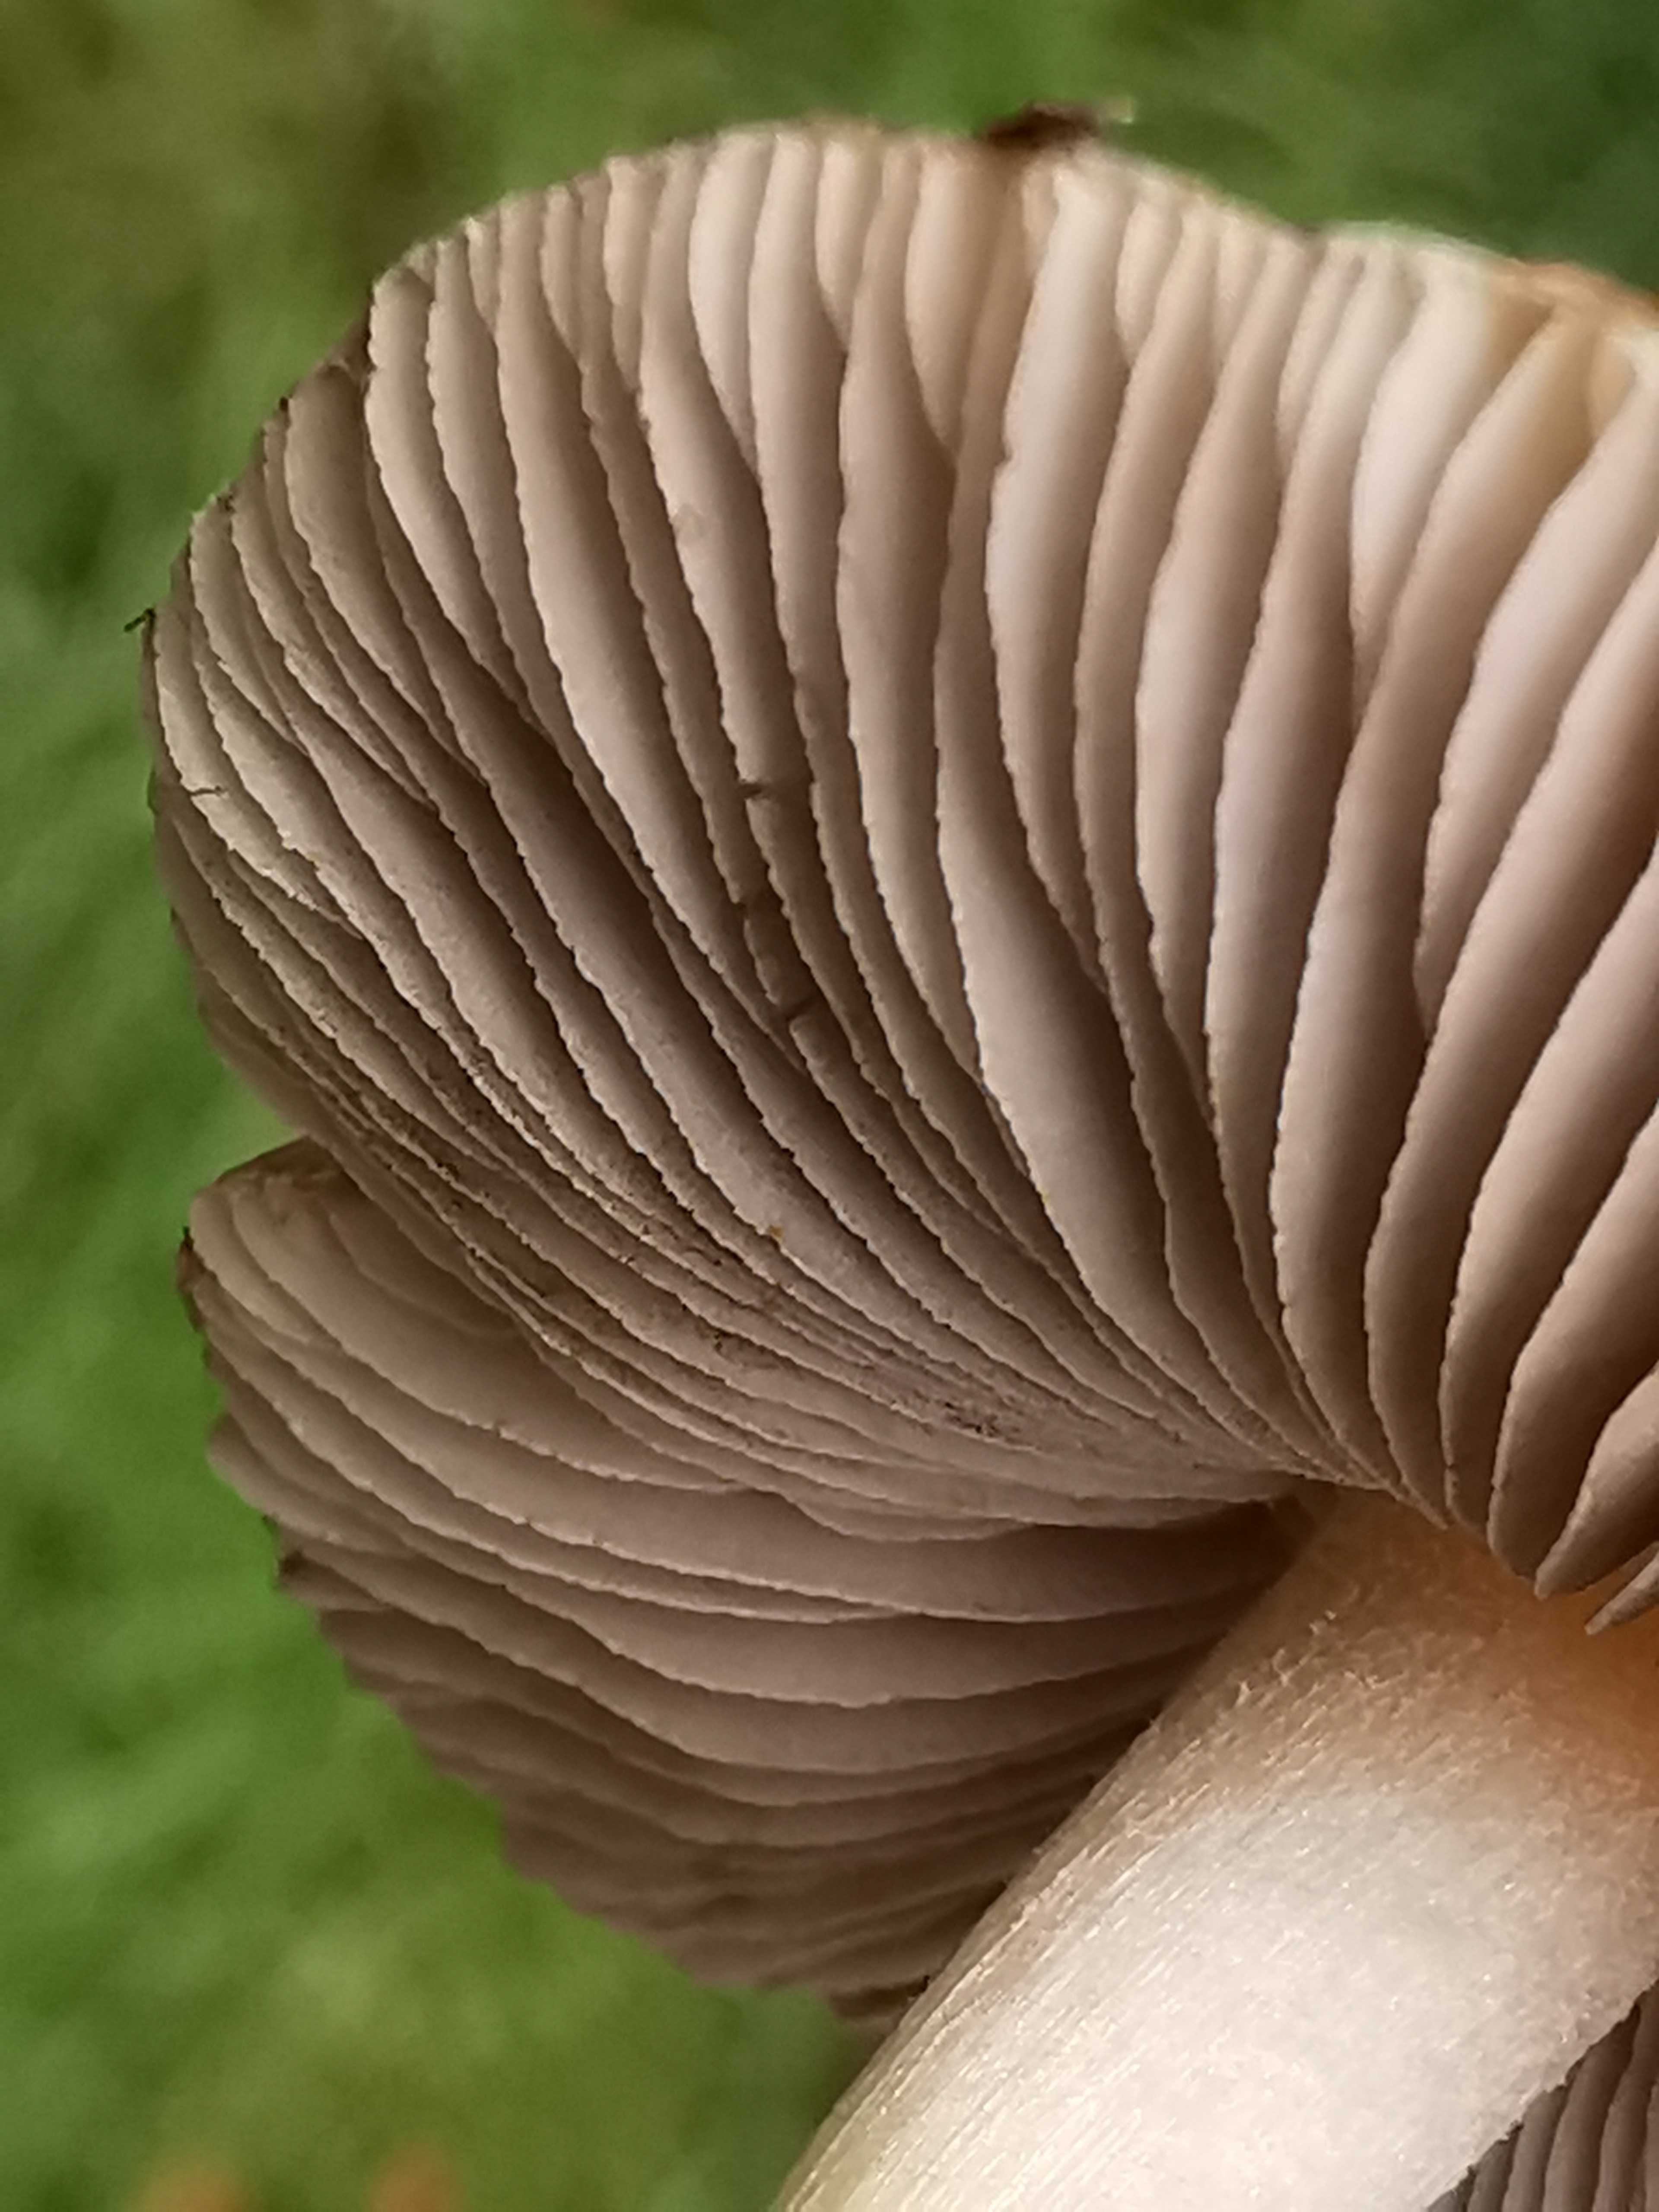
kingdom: Fungi
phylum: Basidiomycota
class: Agaricomycetes
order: Agaricales
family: Inocybaceae
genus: Inocybe
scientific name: Inocybe napipes
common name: roeknoldet trævlhat
